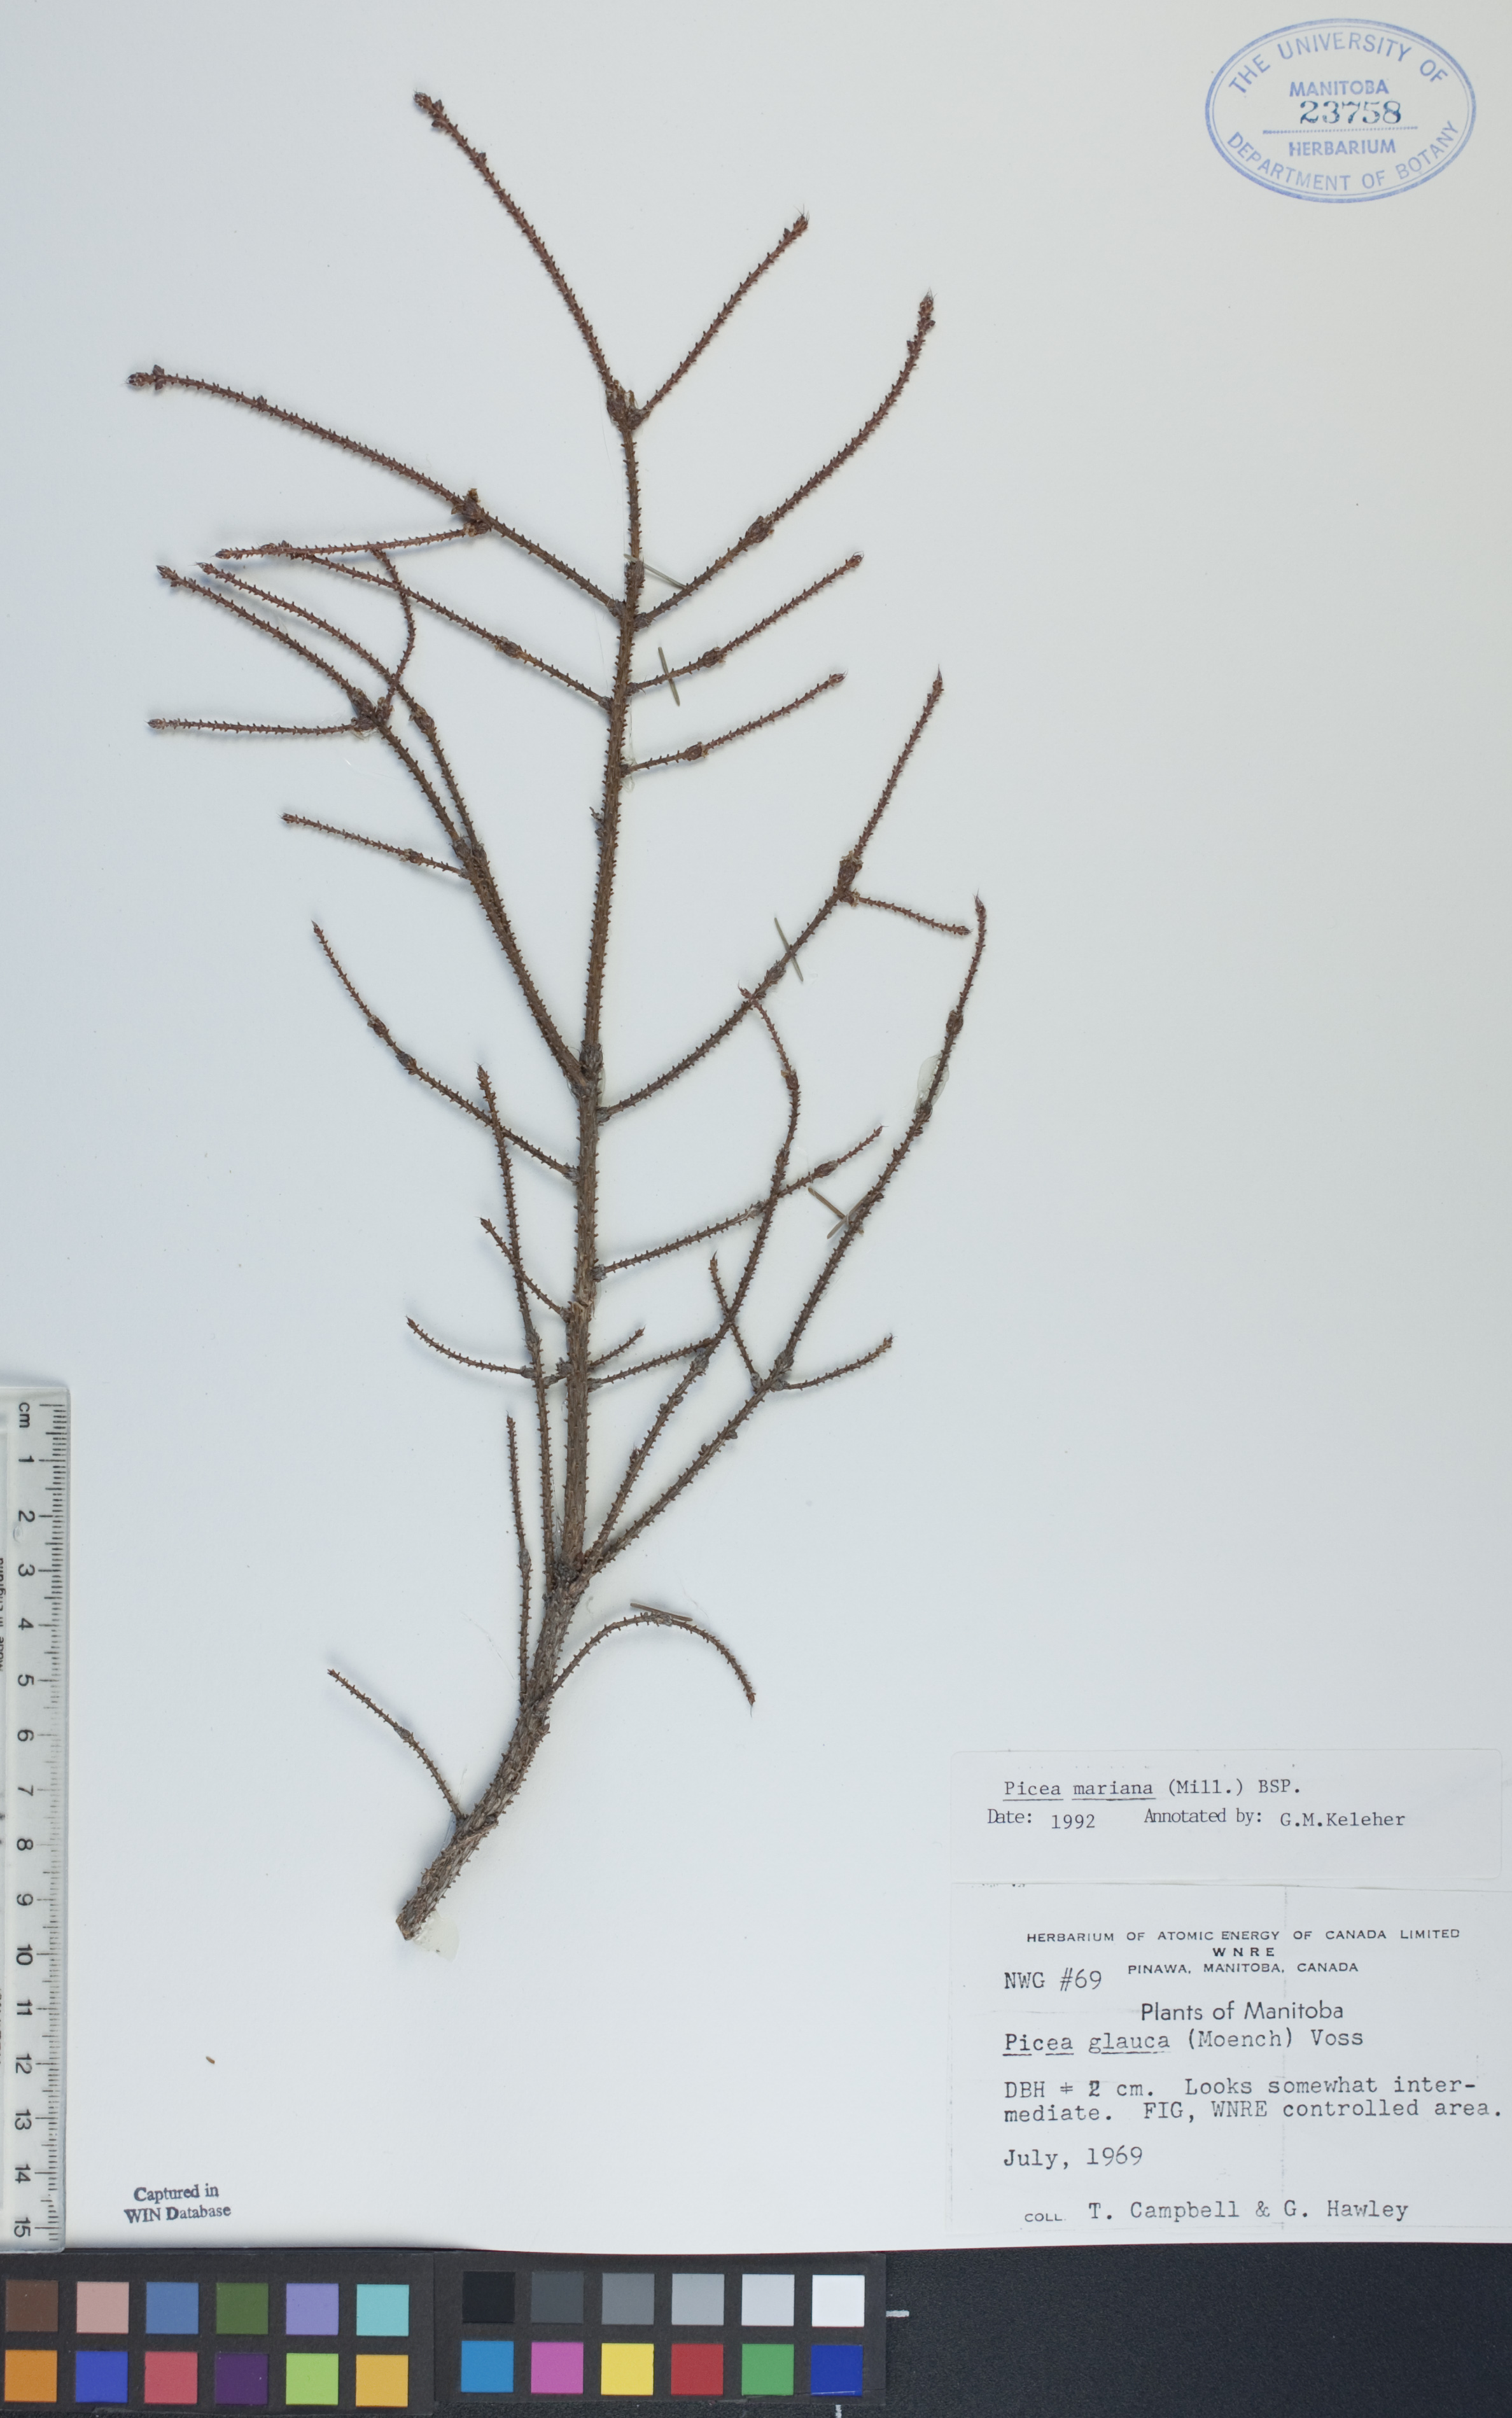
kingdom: Plantae
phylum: Tracheophyta
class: Pinopsida
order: Pinales
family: Pinaceae
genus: Picea
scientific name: Picea mariana
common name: Black spruce
